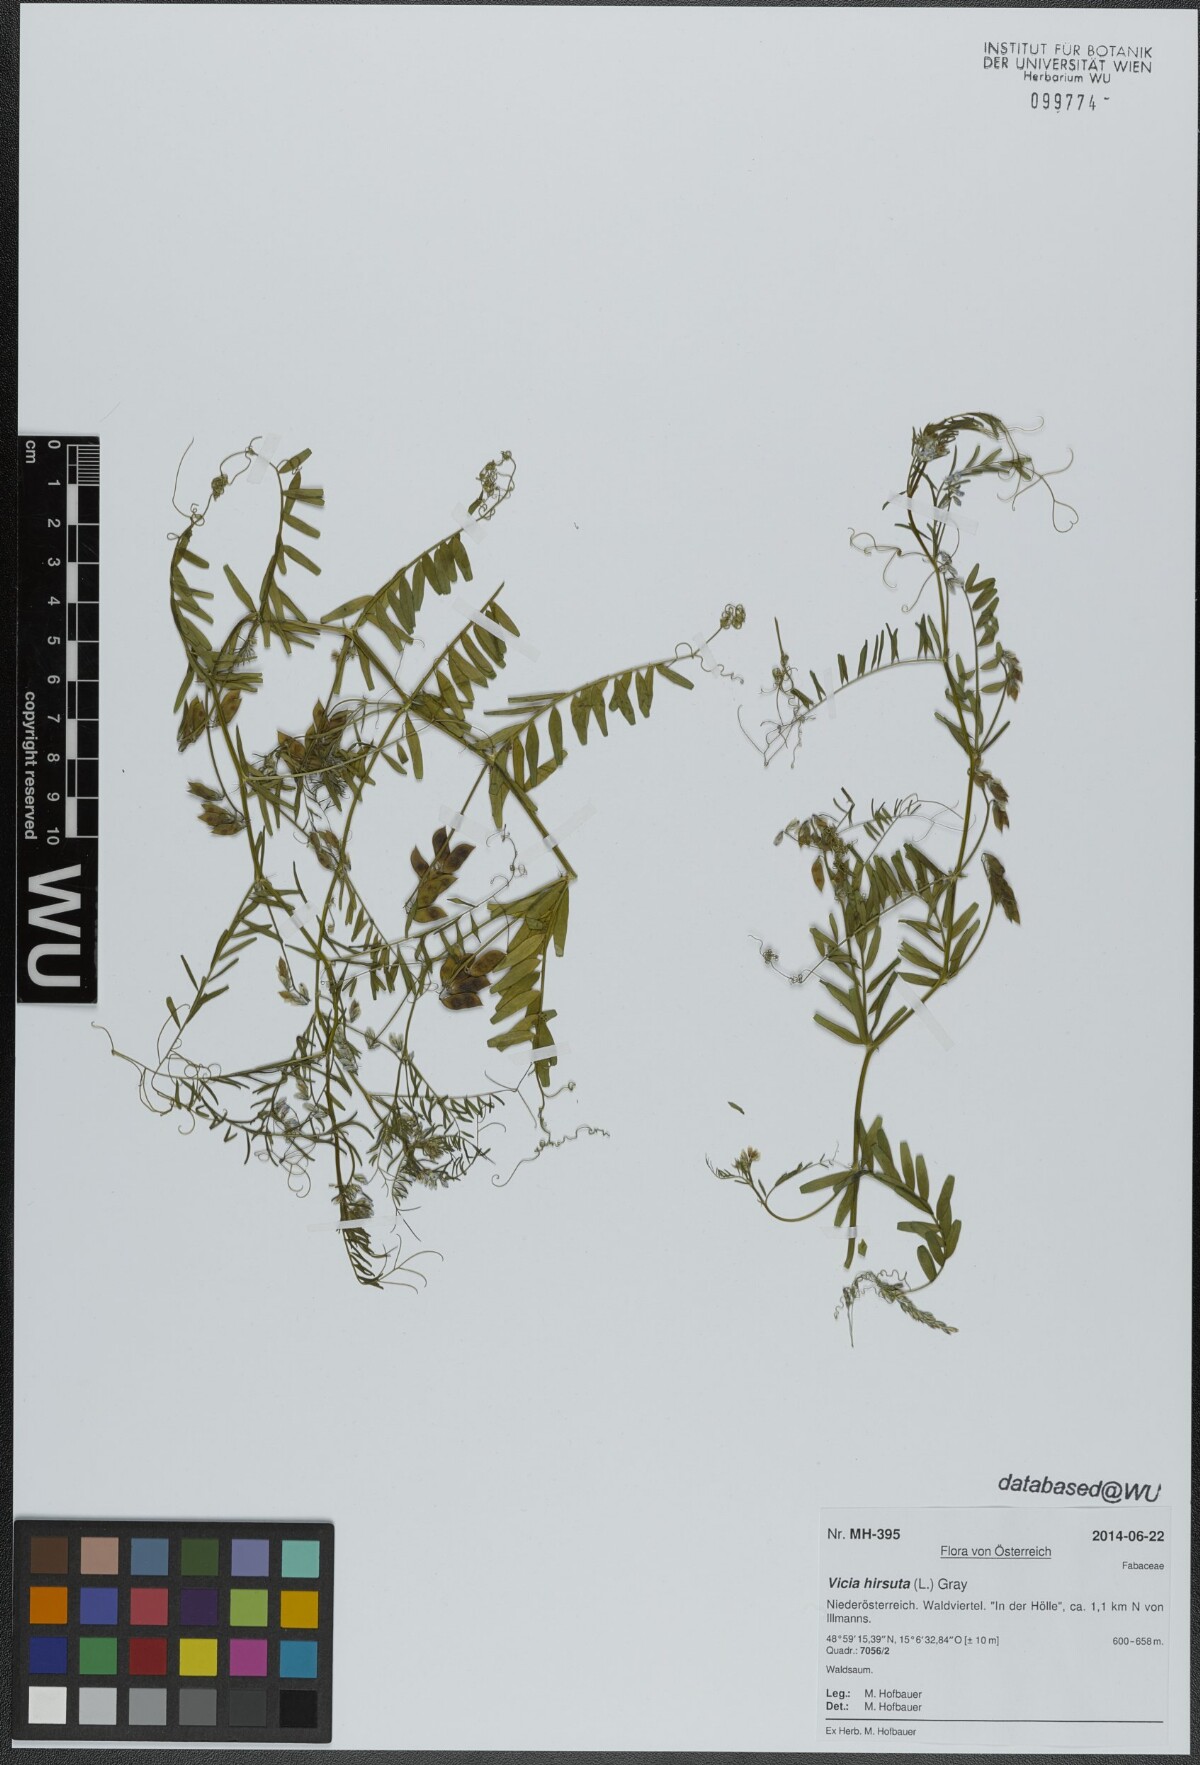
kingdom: Plantae
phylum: Tracheophyta
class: Magnoliopsida
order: Fabales
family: Fabaceae
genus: Vicia
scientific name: Vicia hirsuta
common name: Tiny vetch
